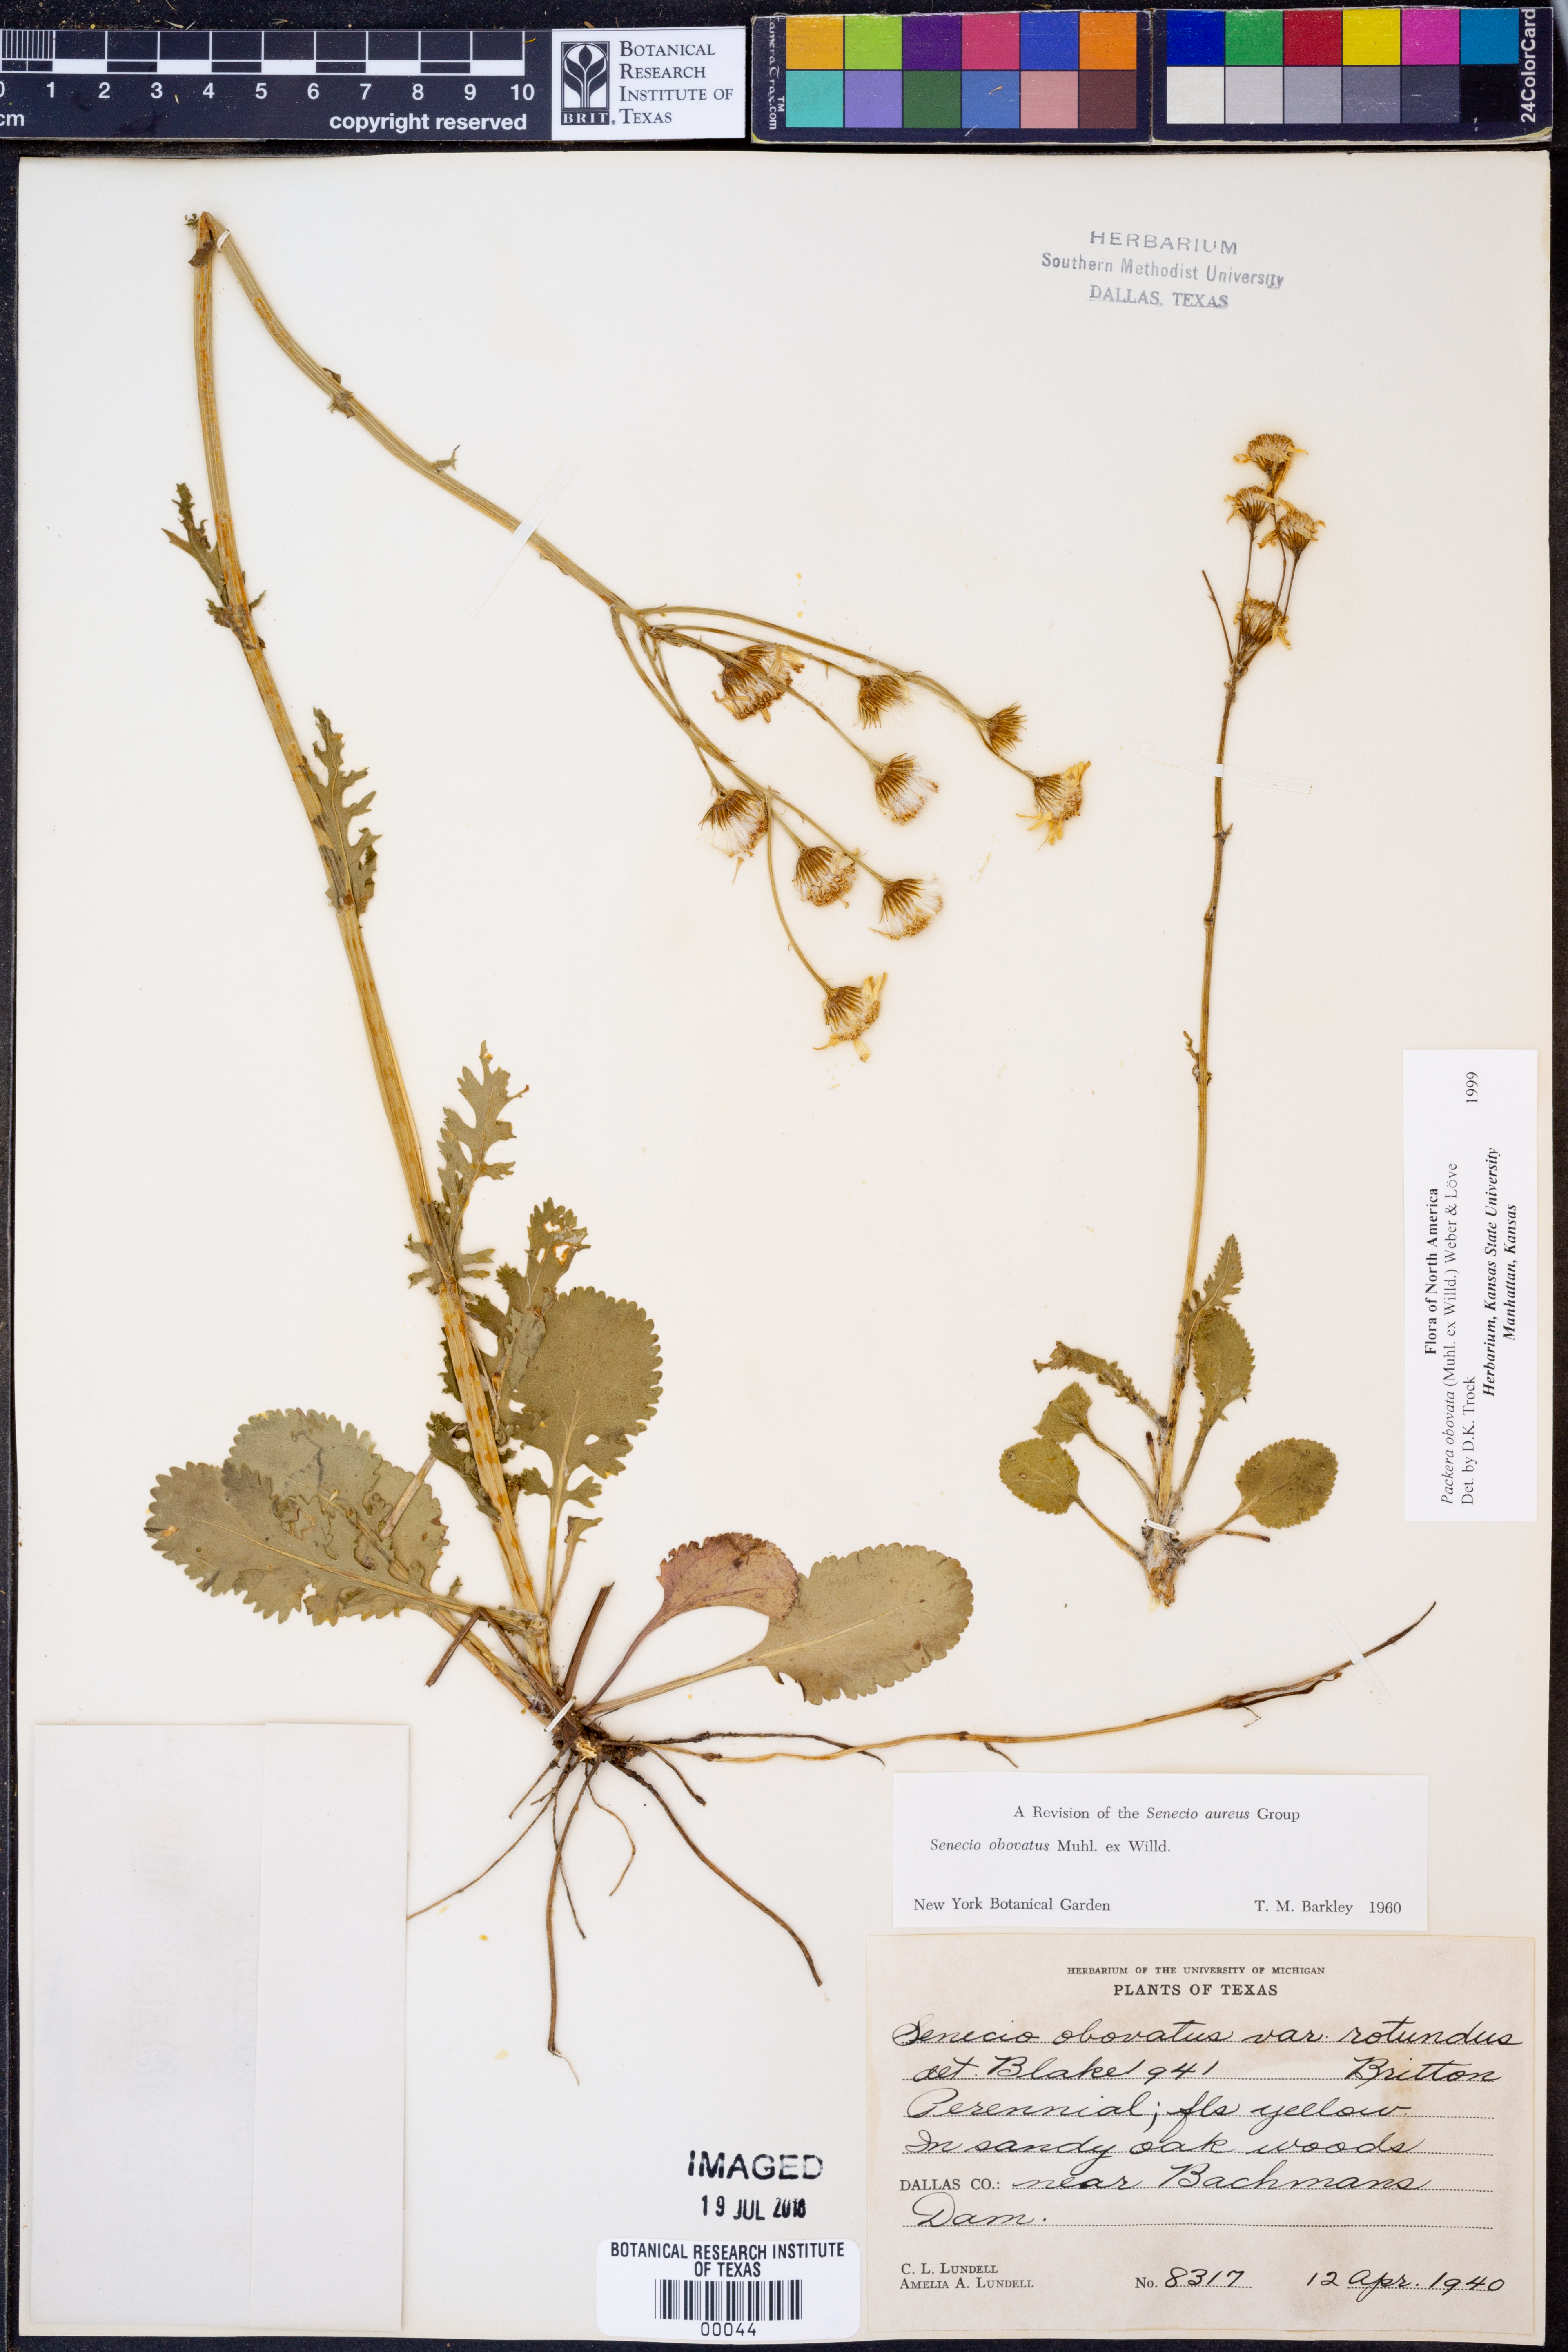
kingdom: Plantae
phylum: Tracheophyta
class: Magnoliopsida
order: Asterales
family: Asteraceae
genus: Packera
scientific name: Packera obovata
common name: Round-leaf ragwort
